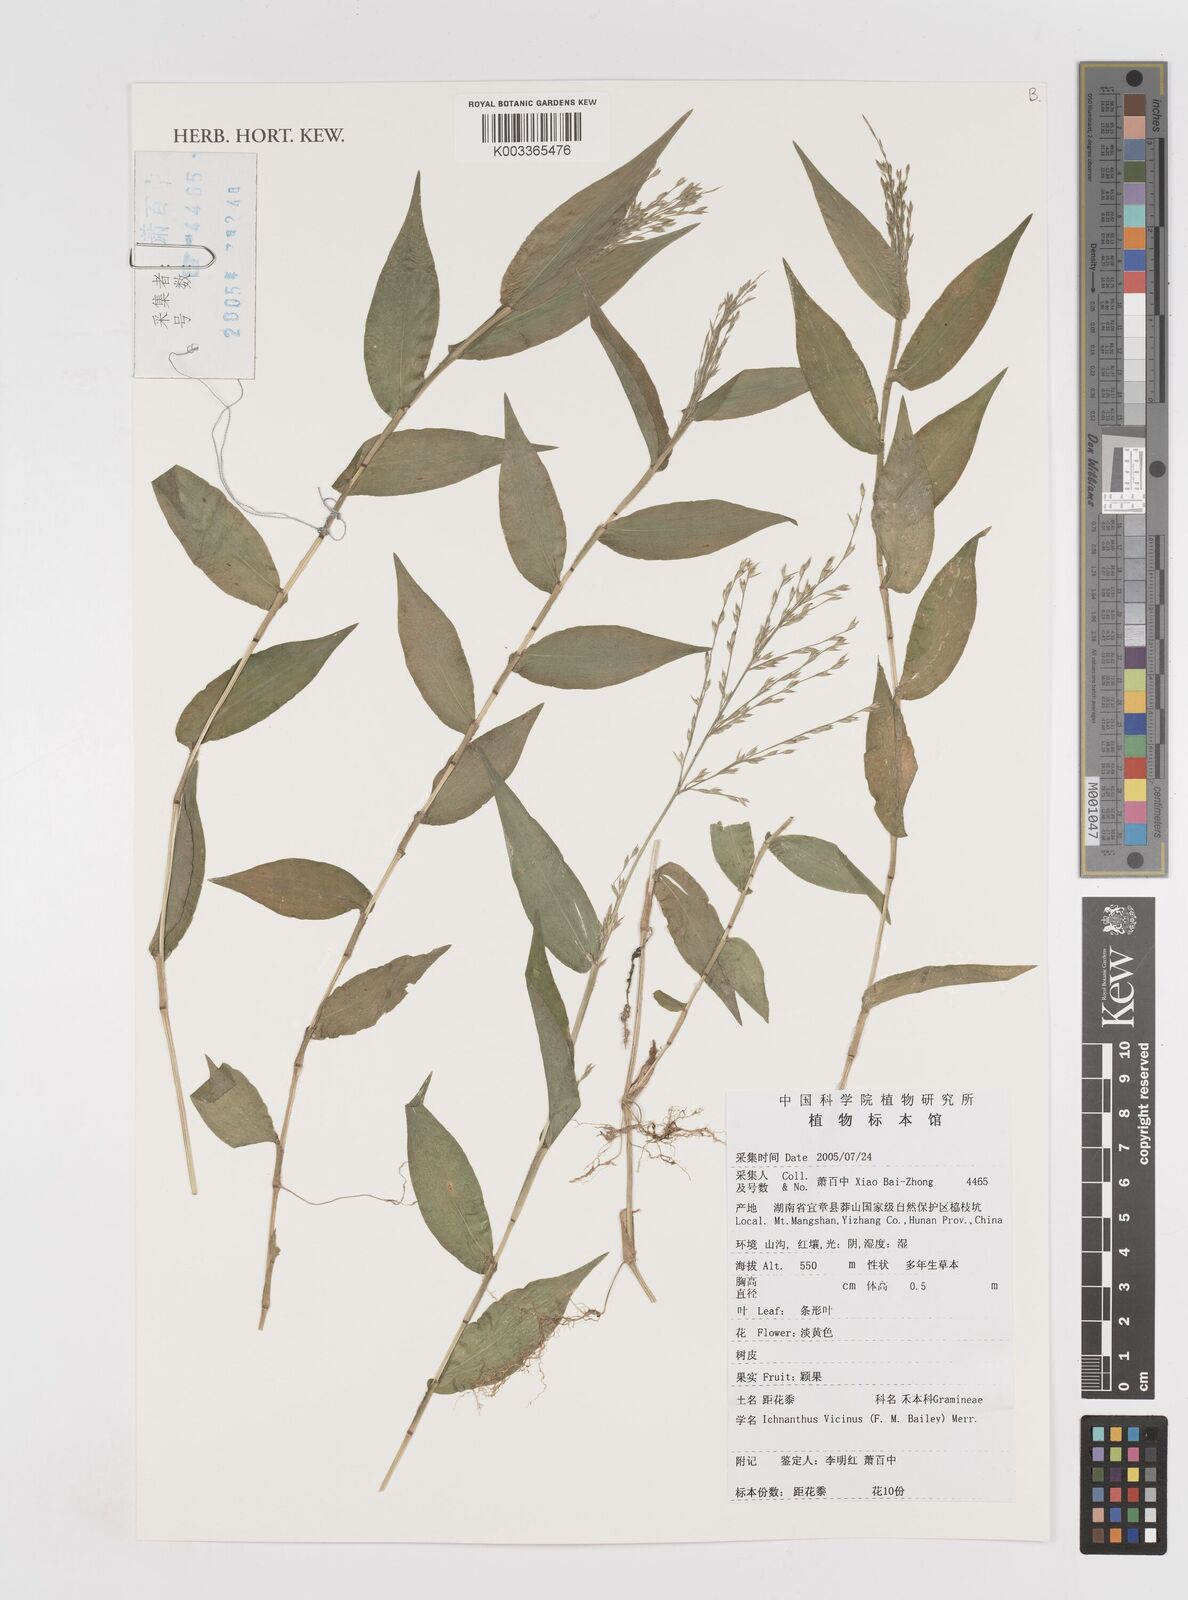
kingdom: Plantae
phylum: Tracheophyta
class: Liliopsida
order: Poales
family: Poaceae
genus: Ichnanthus
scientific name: Ichnanthus pallens
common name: Water grass
